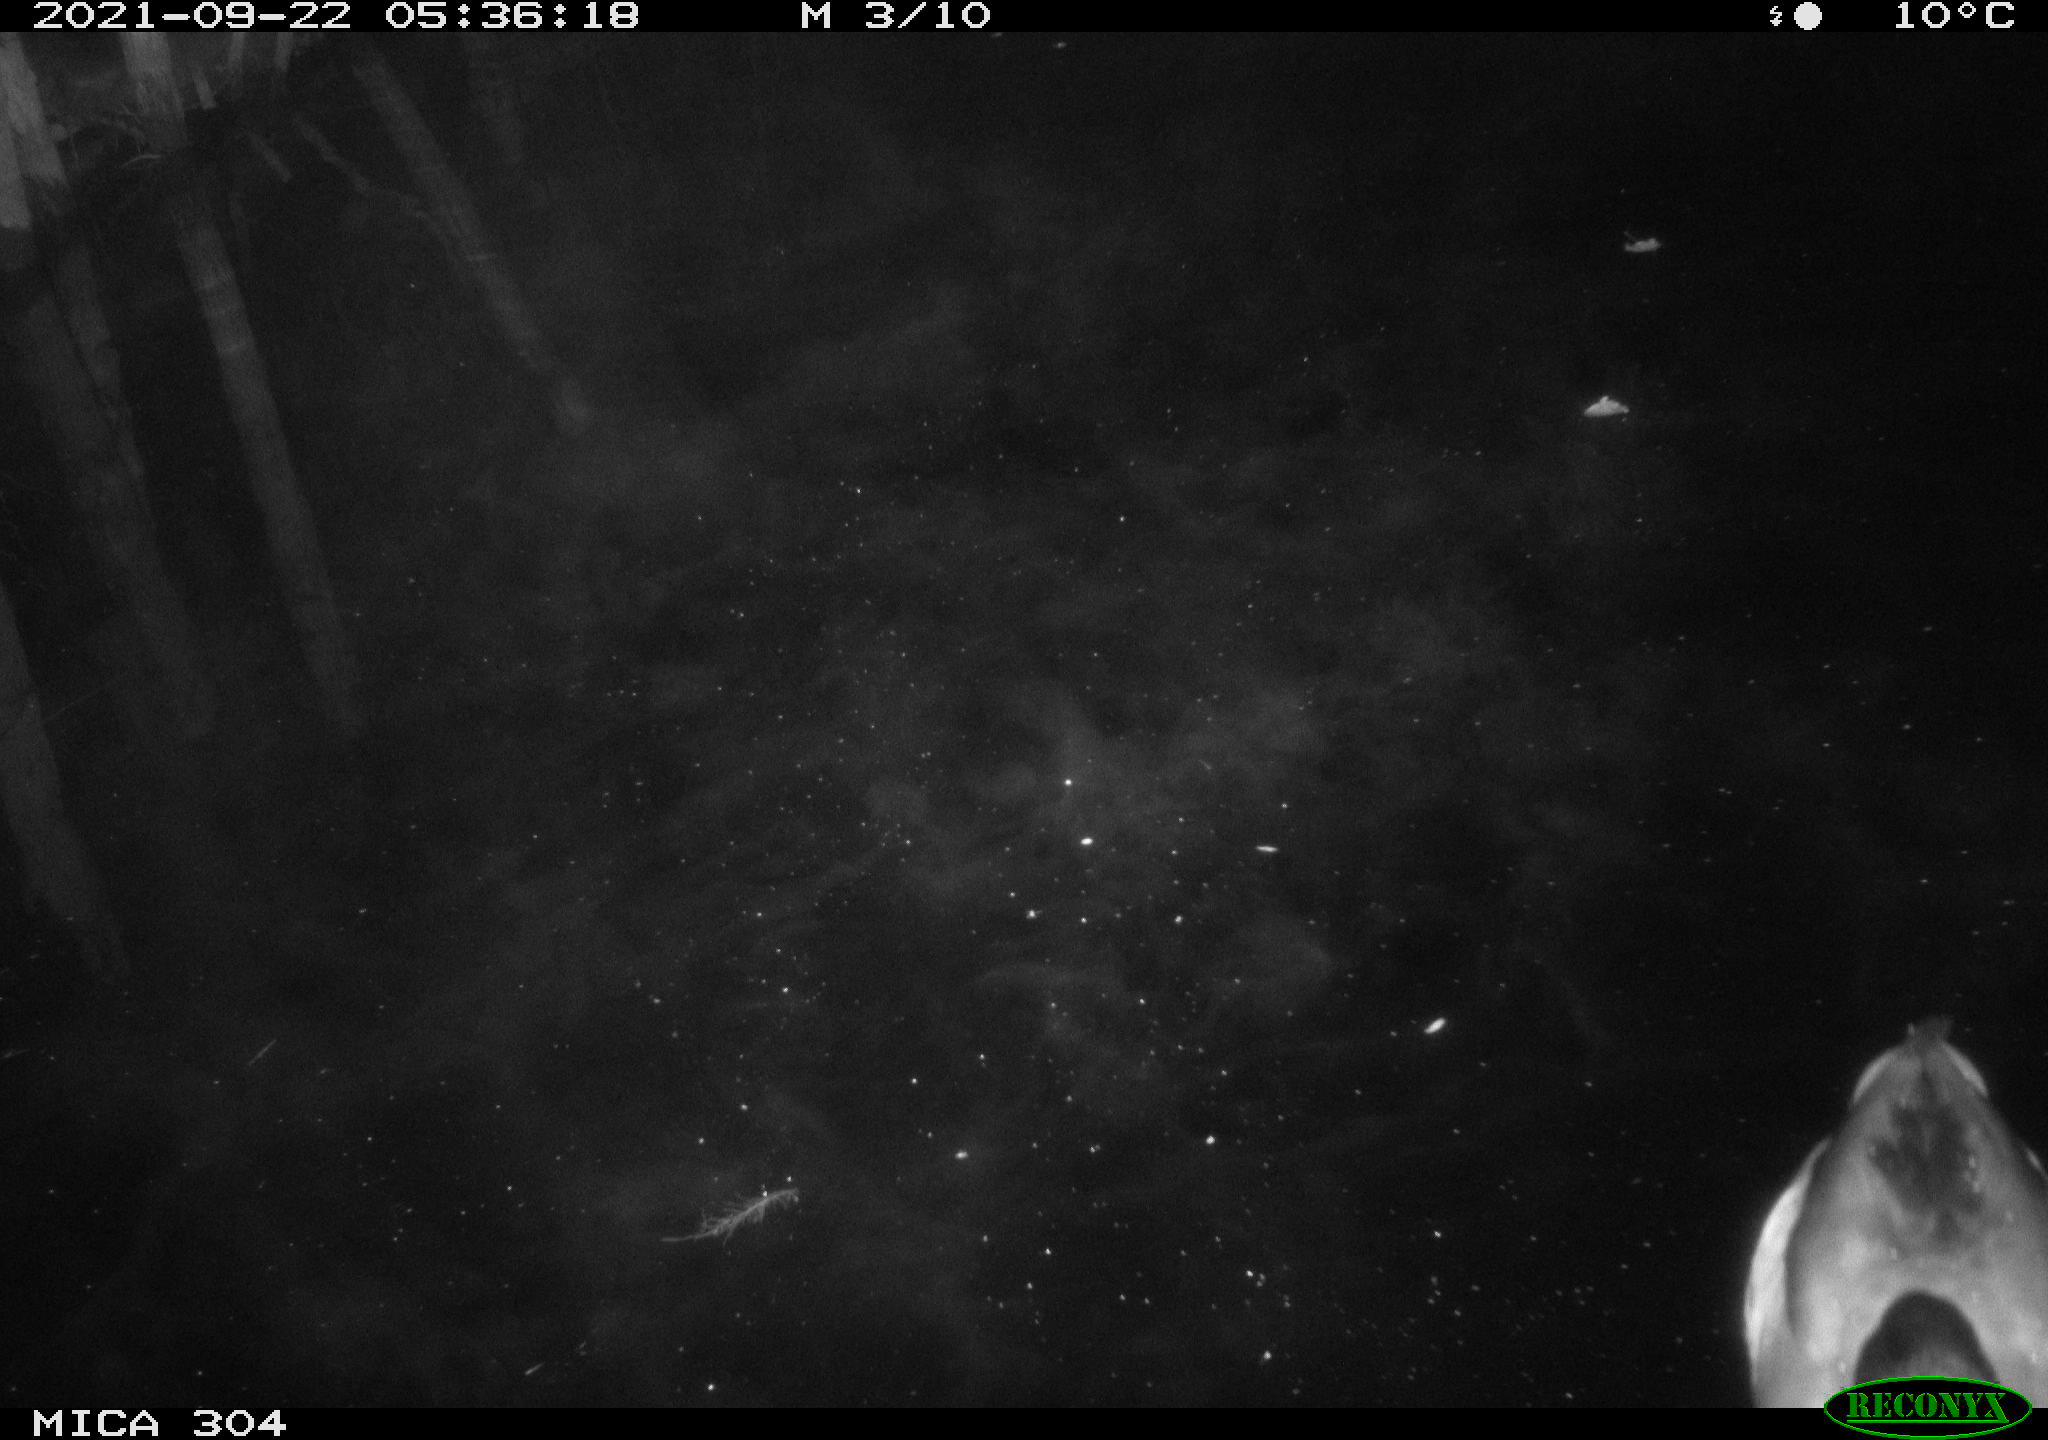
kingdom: Animalia
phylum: Chordata
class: Aves
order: Anseriformes
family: Anatidae
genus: Anas
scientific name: Anas platyrhynchos
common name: Mallard
